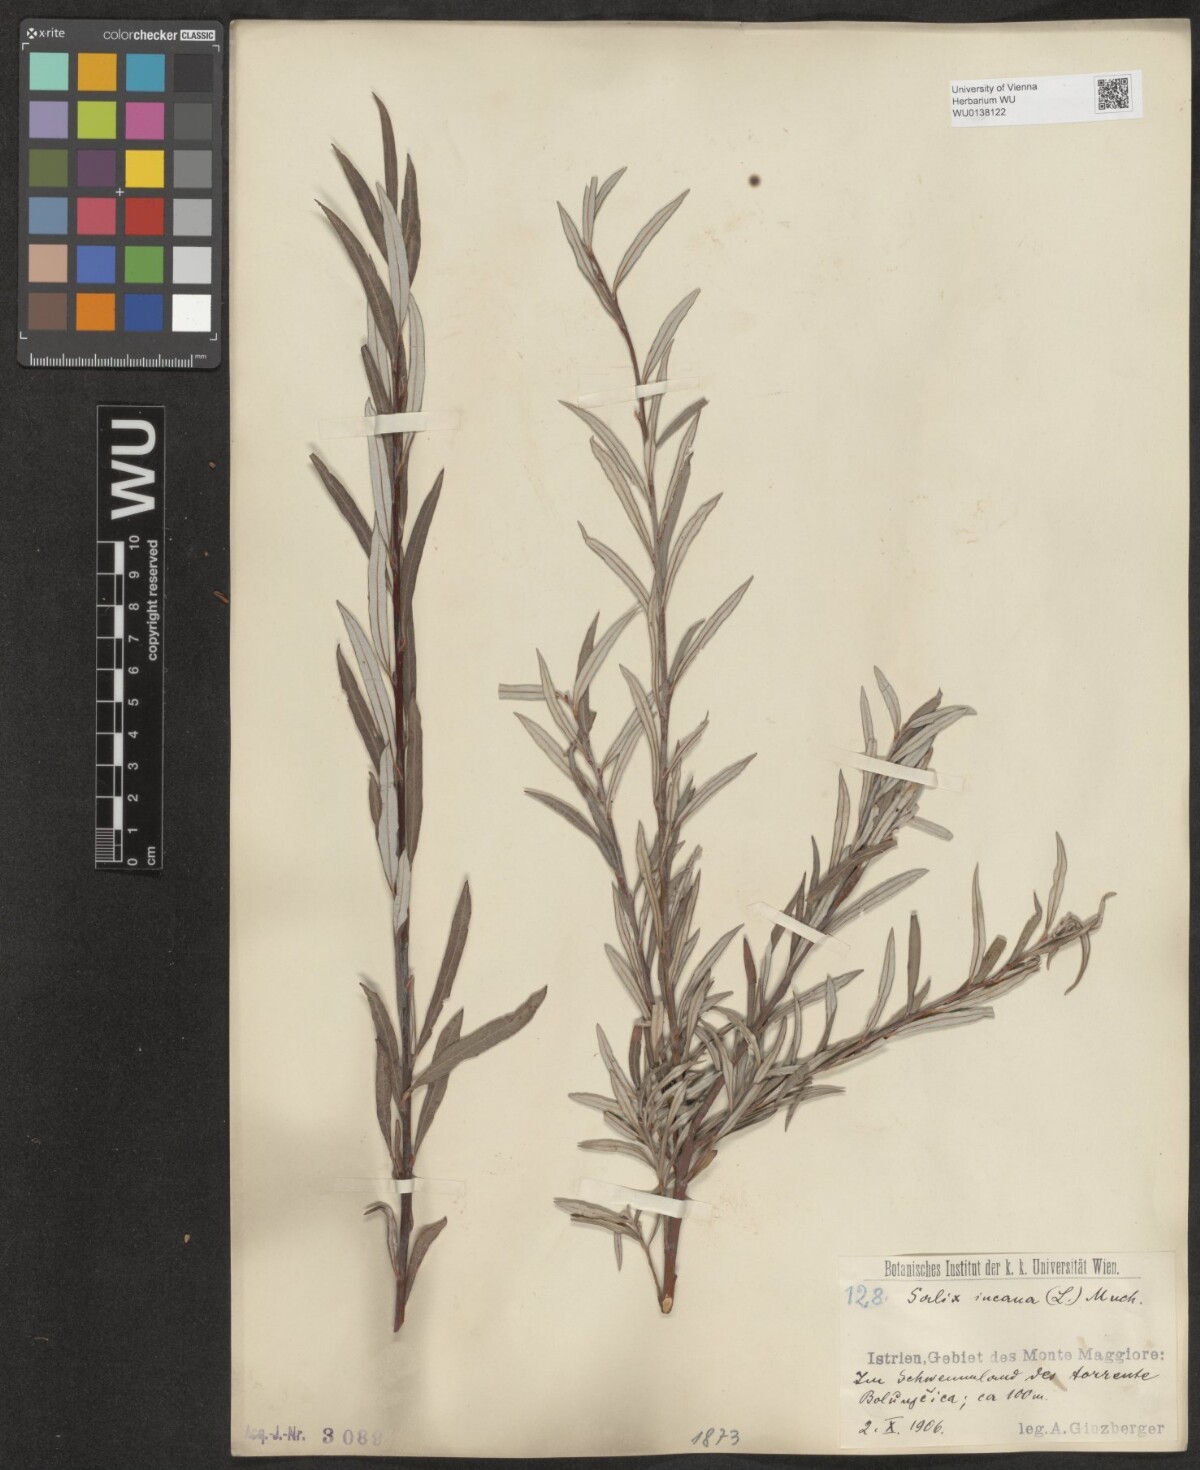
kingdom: Plantae
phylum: Tracheophyta
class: Magnoliopsida
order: Malpighiales
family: Salicaceae
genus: Salix
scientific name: Salix eleagnos
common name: Elaeagnus willow
